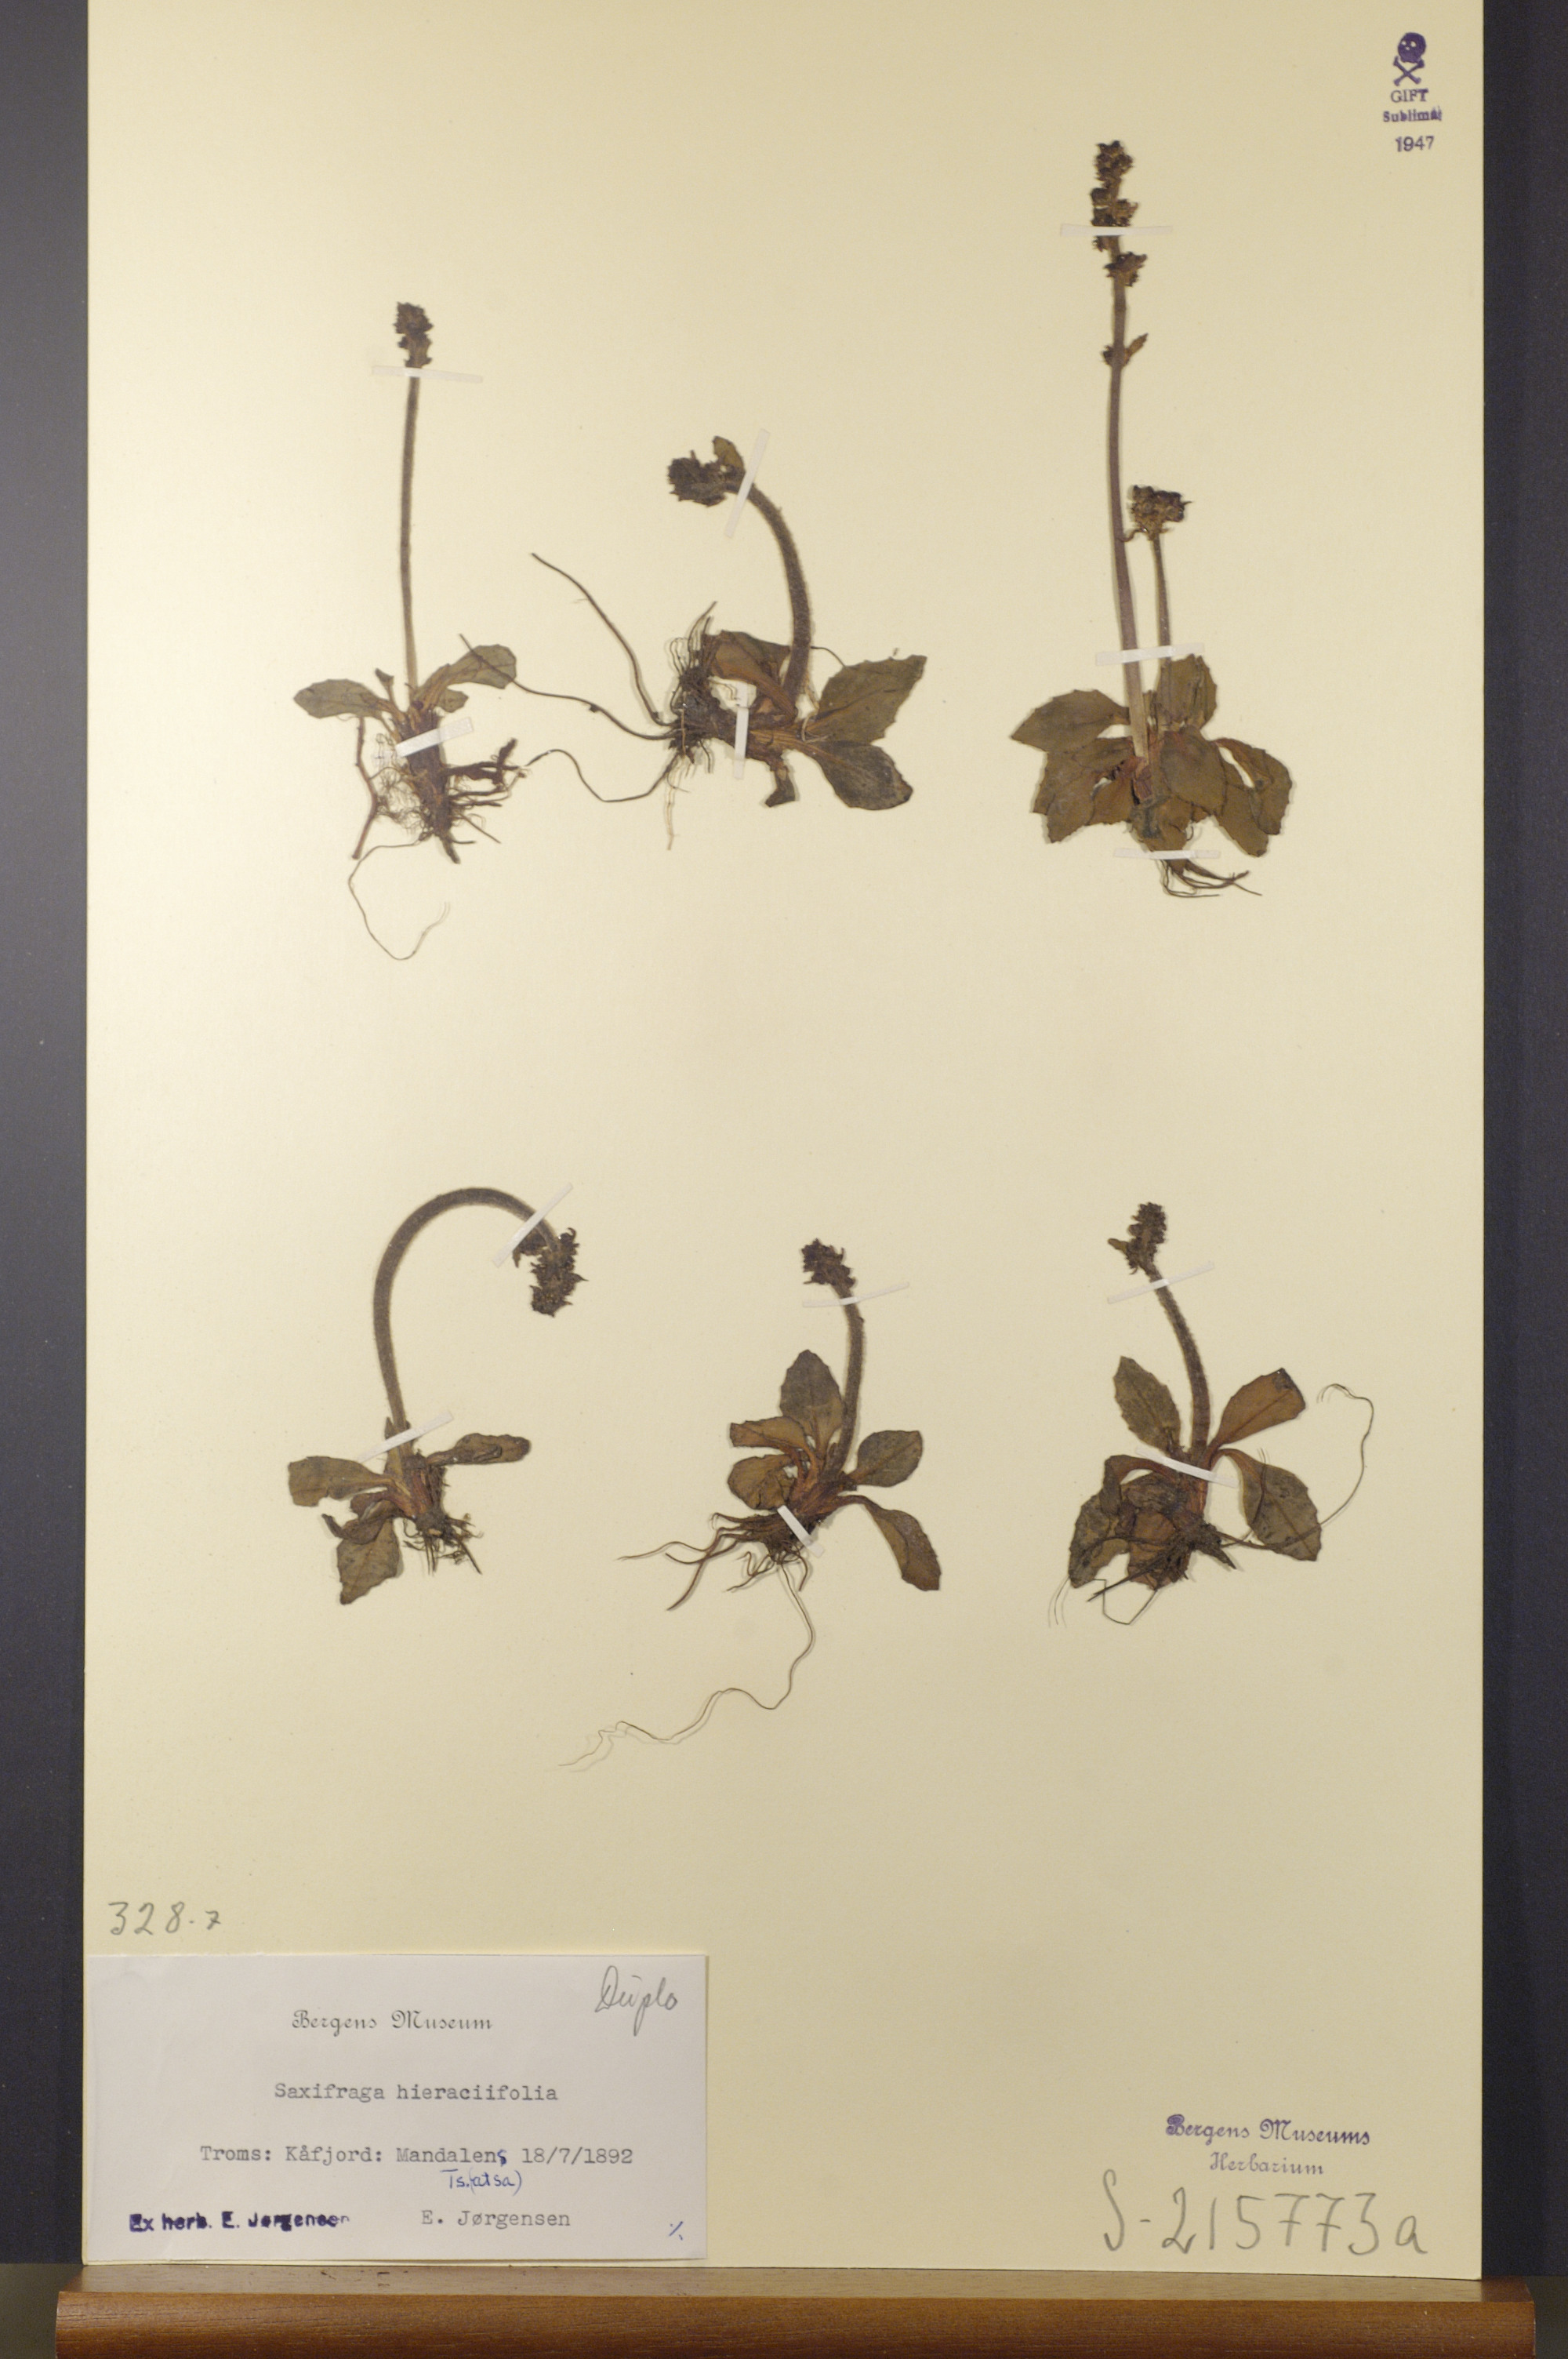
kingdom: Plantae
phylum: Tracheophyta
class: Magnoliopsida
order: Saxifragales
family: Saxifragaceae
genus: Micranthes
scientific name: Micranthes hieraciifolia
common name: Hawkweed-leaved saxifrage
